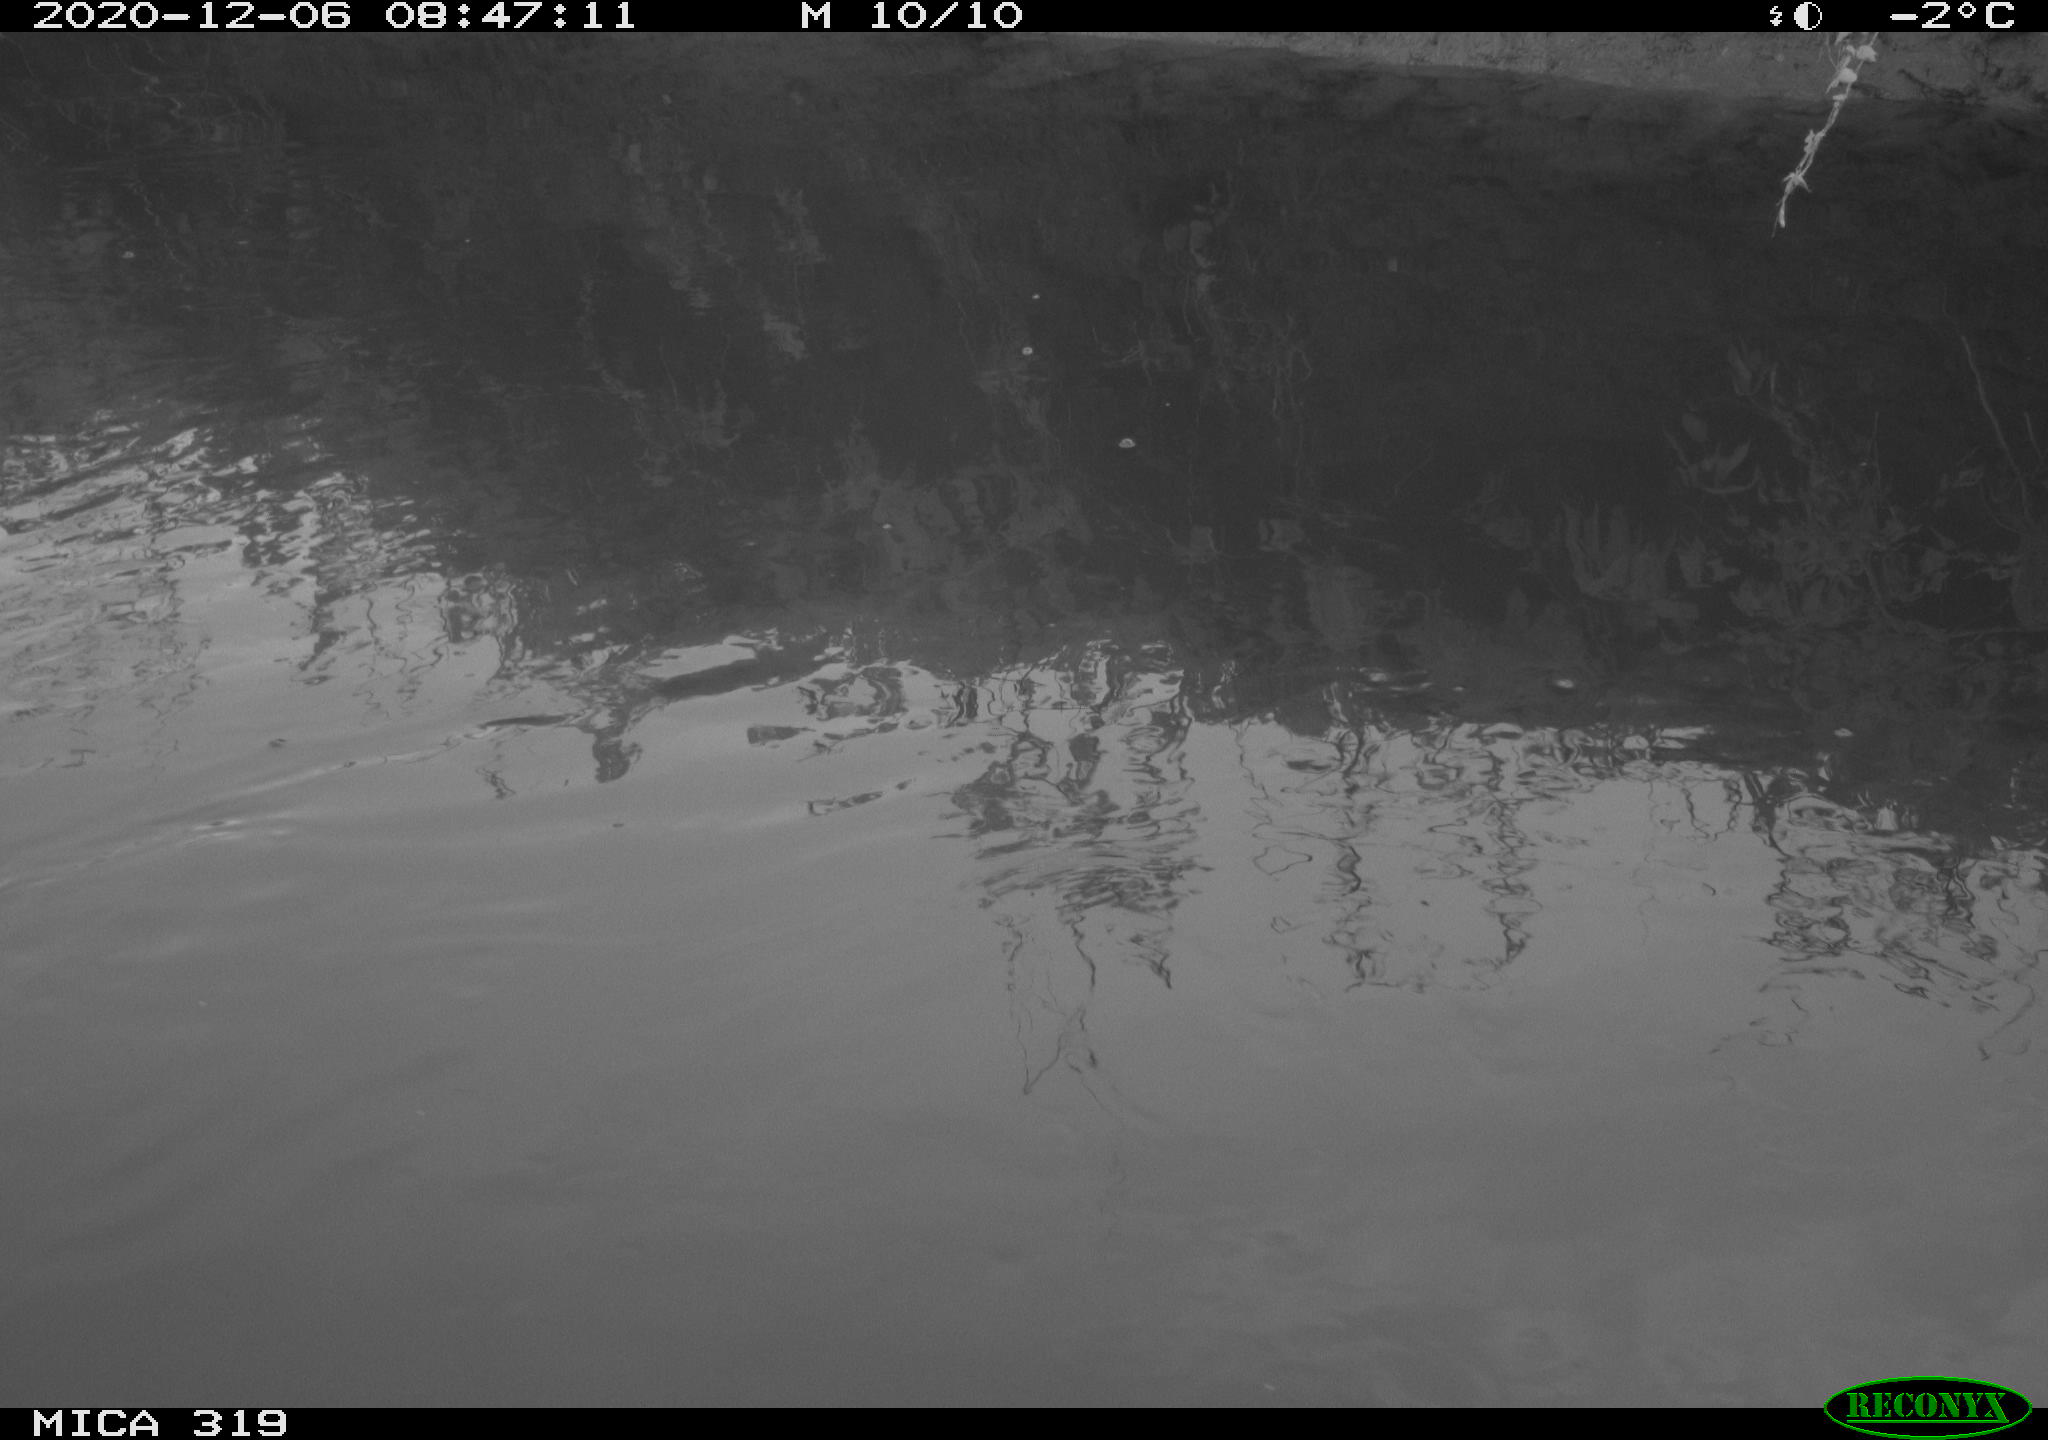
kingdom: Animalia
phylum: Chordata
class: Aves
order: Gruiformes
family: Rallidae
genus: Gallinula
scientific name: Gallinula chloropus
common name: Common moorhen
